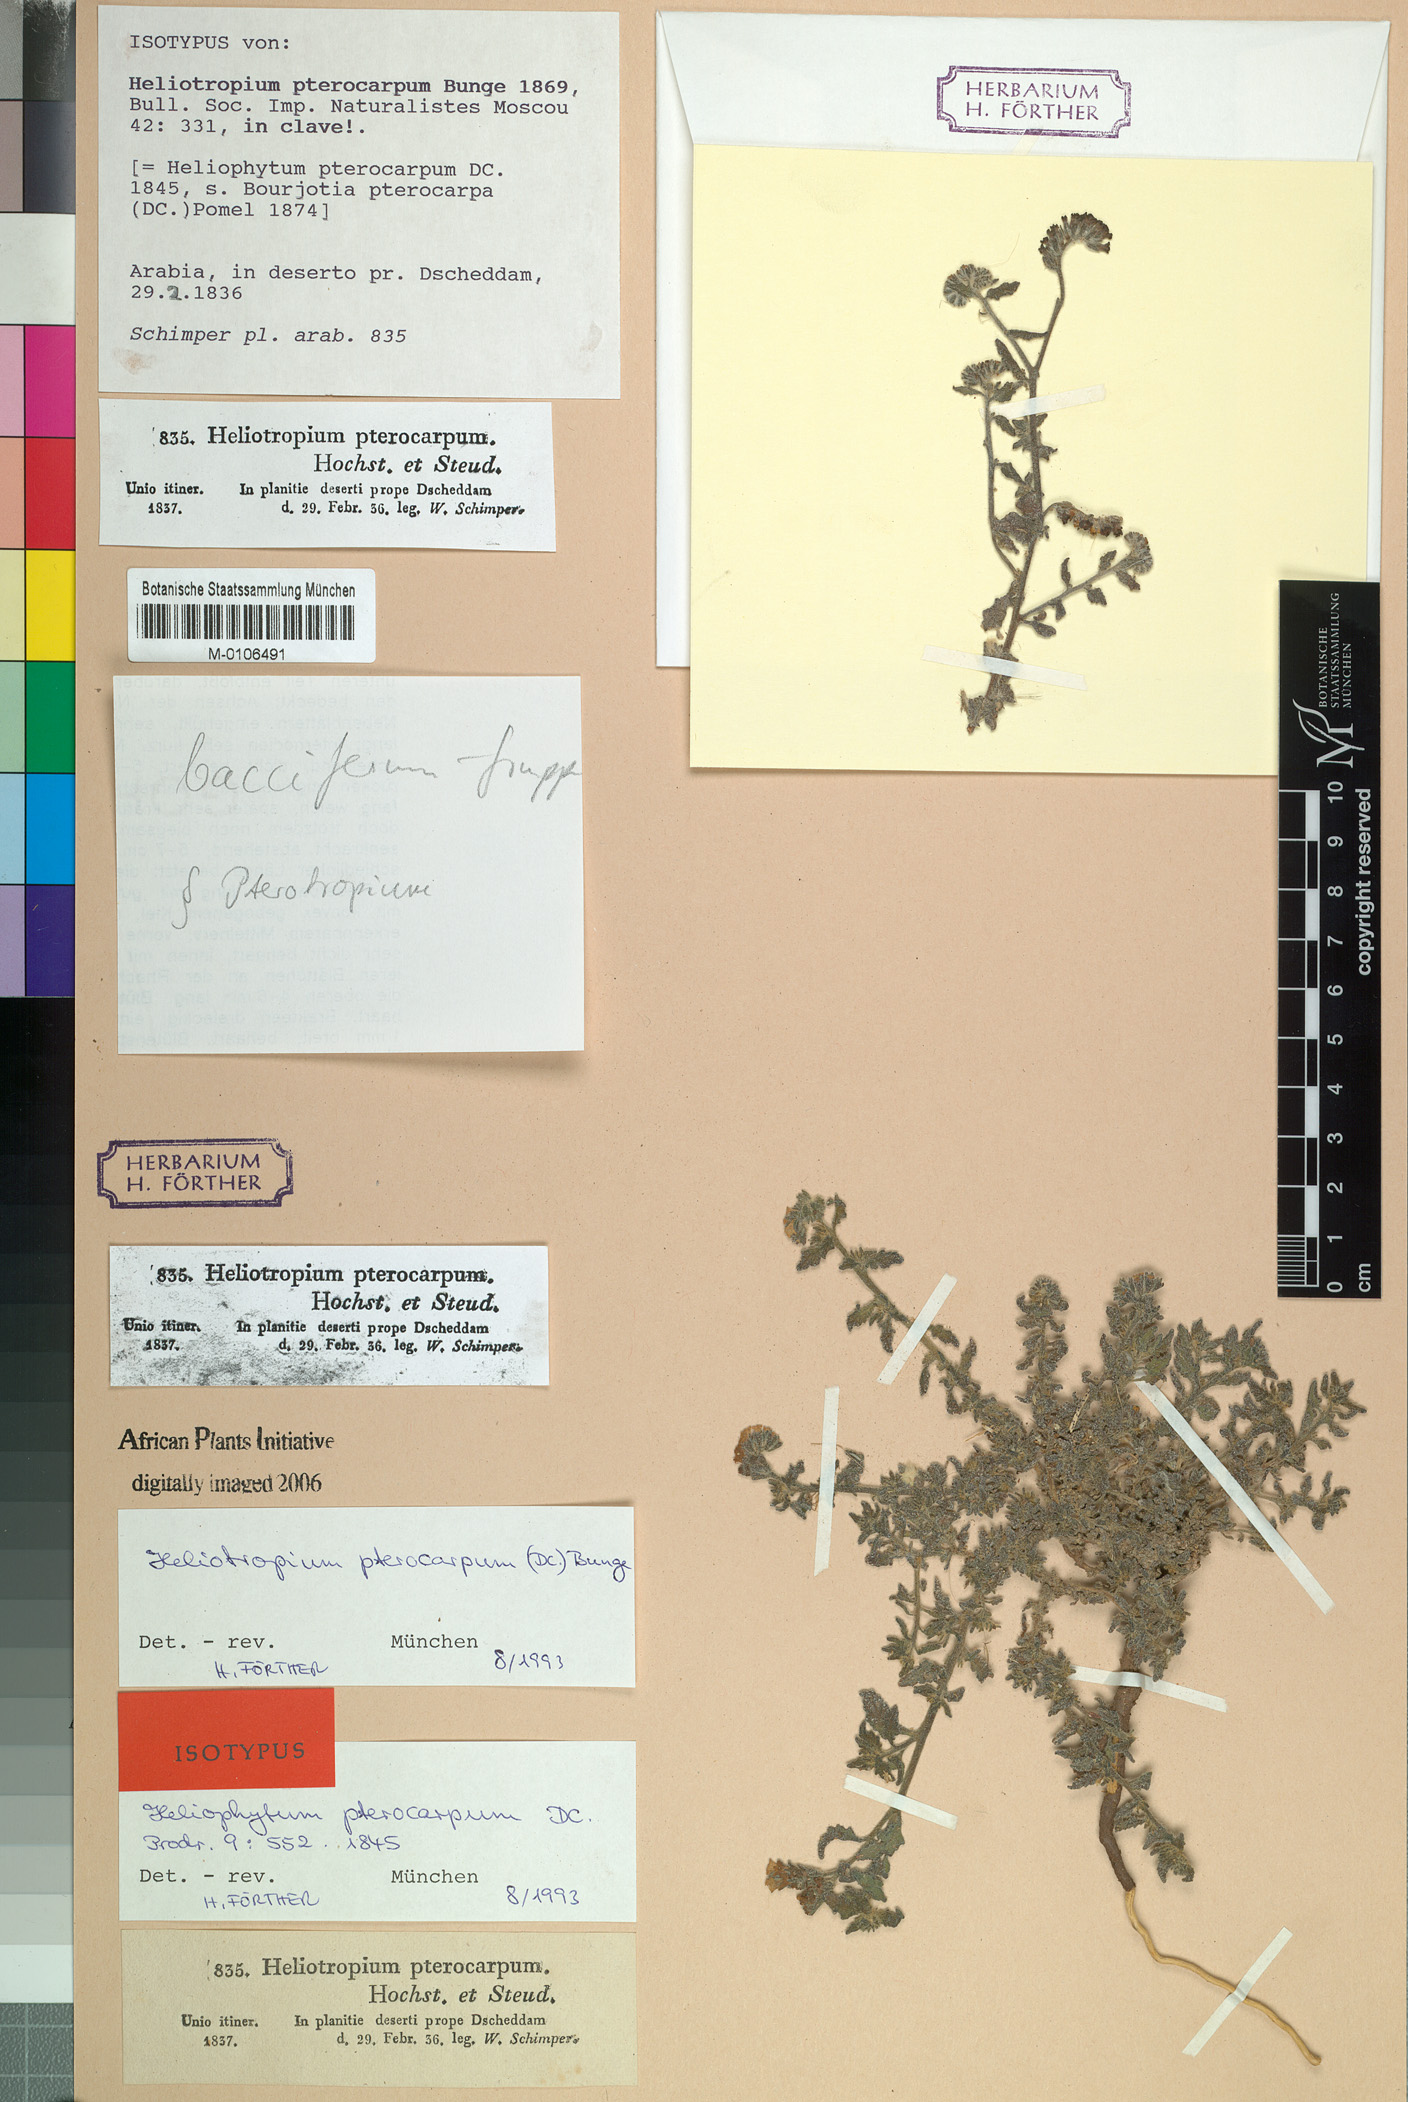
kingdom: Plantae
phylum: Tracheophyta
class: Magnoliopsida
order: Boraginales
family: Heliotropiaceae
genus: Heliotropium
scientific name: Heliotropium bacciferum
